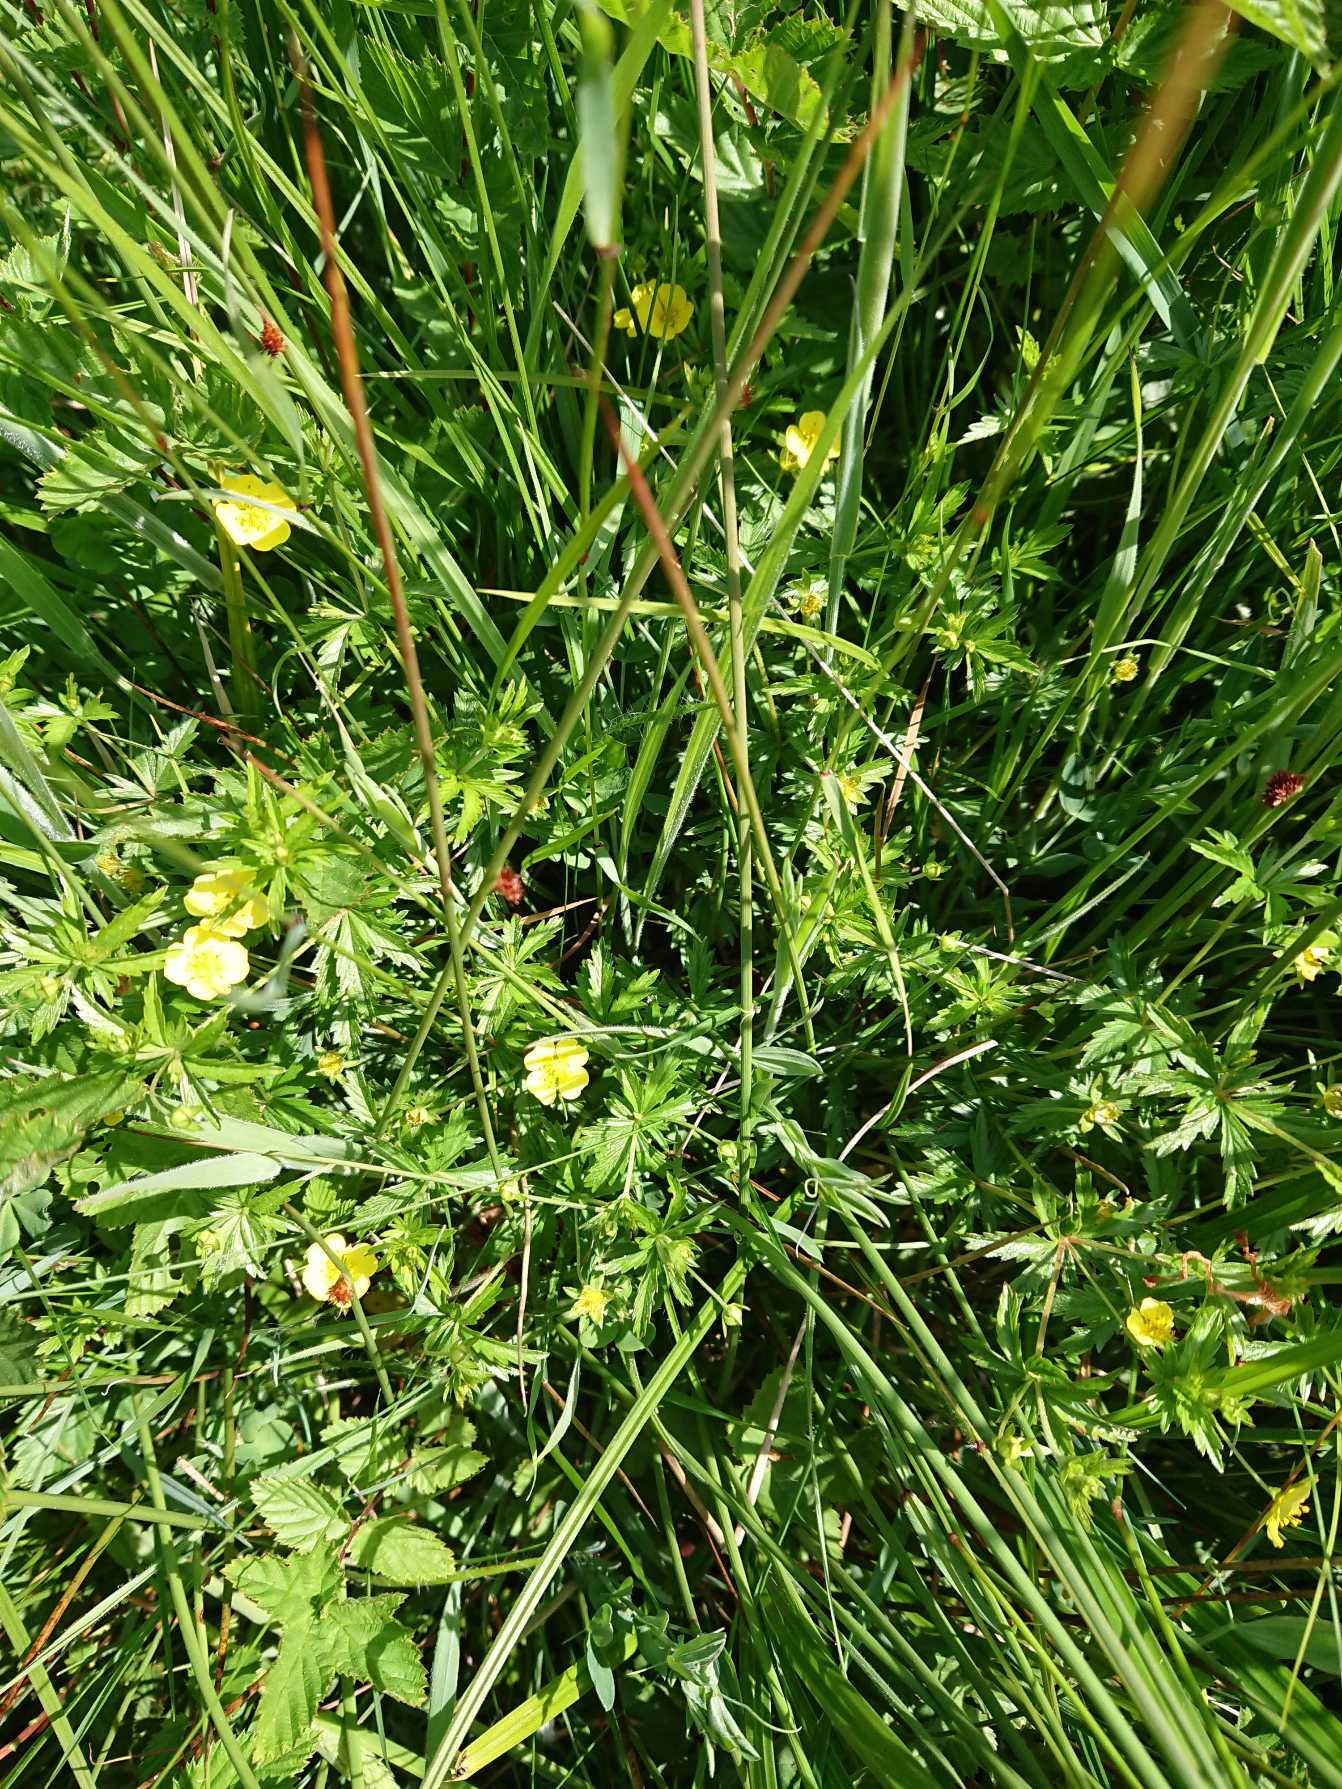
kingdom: Plantae
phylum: Tracheophyta
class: Magnoliopsida
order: Rosales
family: Rosaceae
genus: Potentilla
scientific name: Potentilla erecta
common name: Tormentil
